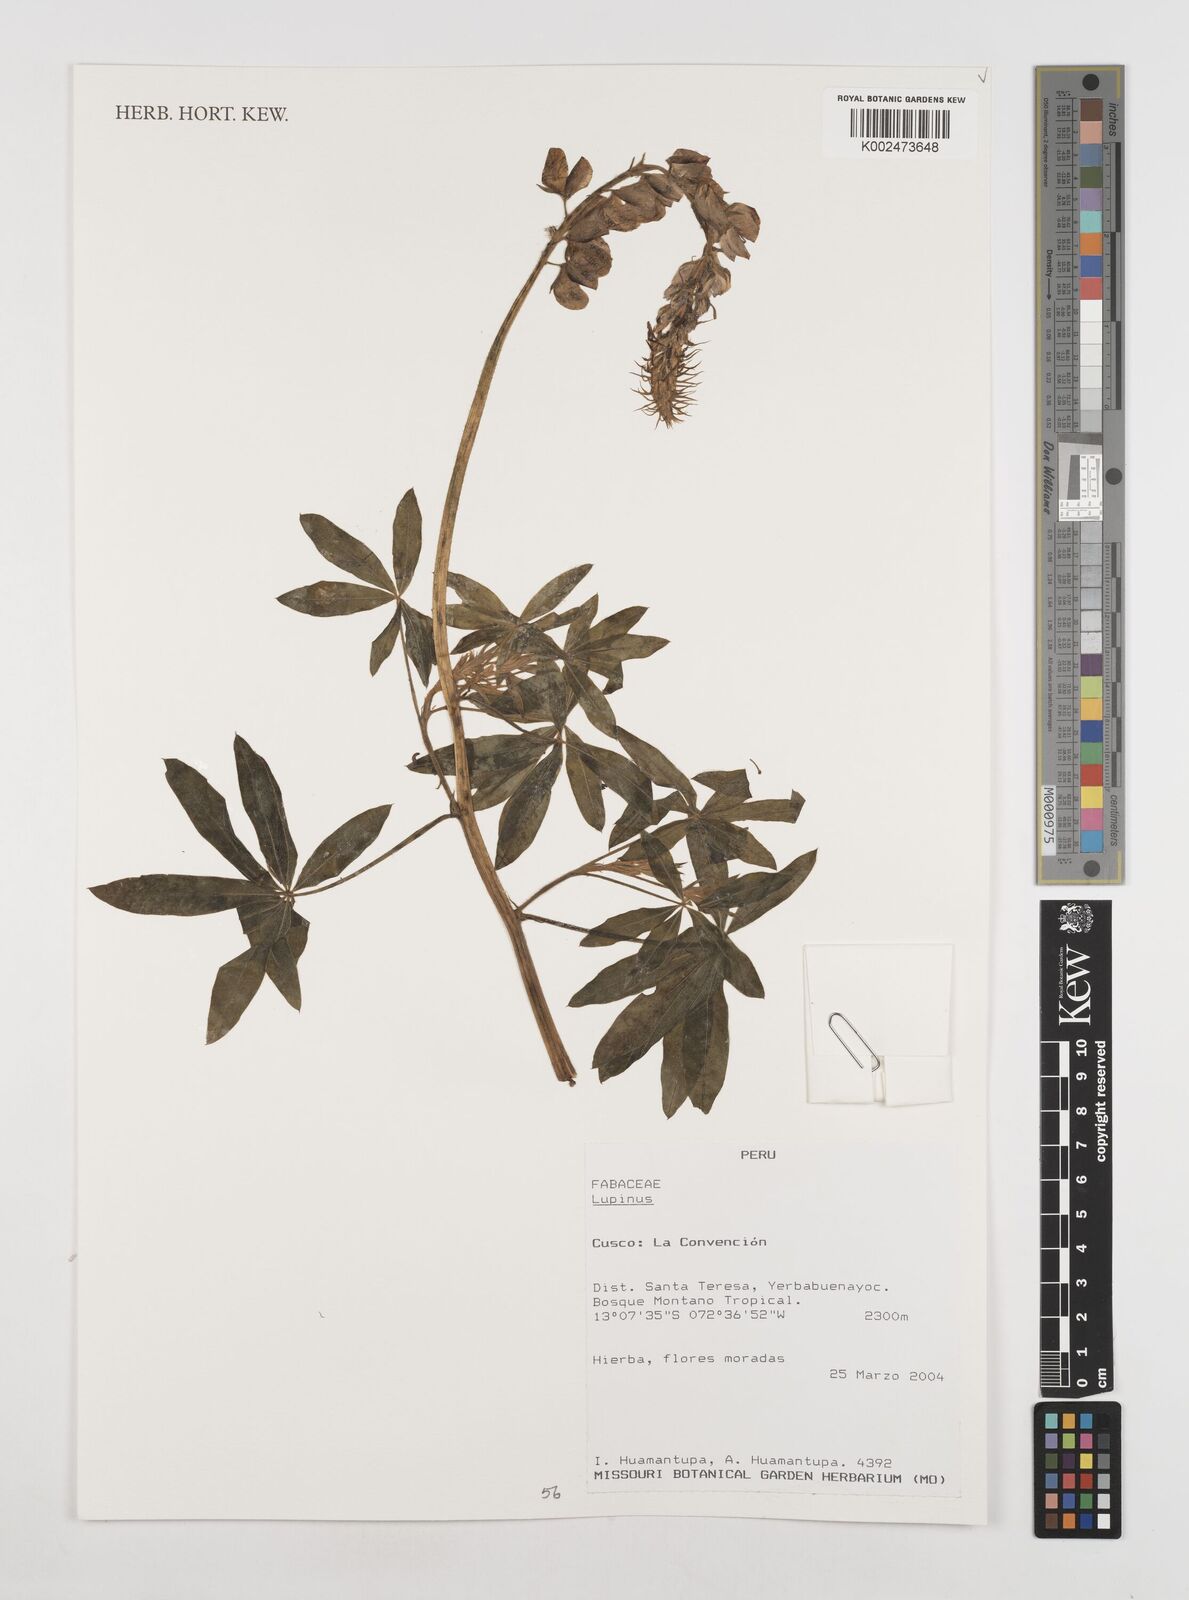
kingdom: Plantae
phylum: Tracheophyta
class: Magnoliopsida
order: Fabales
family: Fabaceae
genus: Lupinus
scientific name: Lupinus
